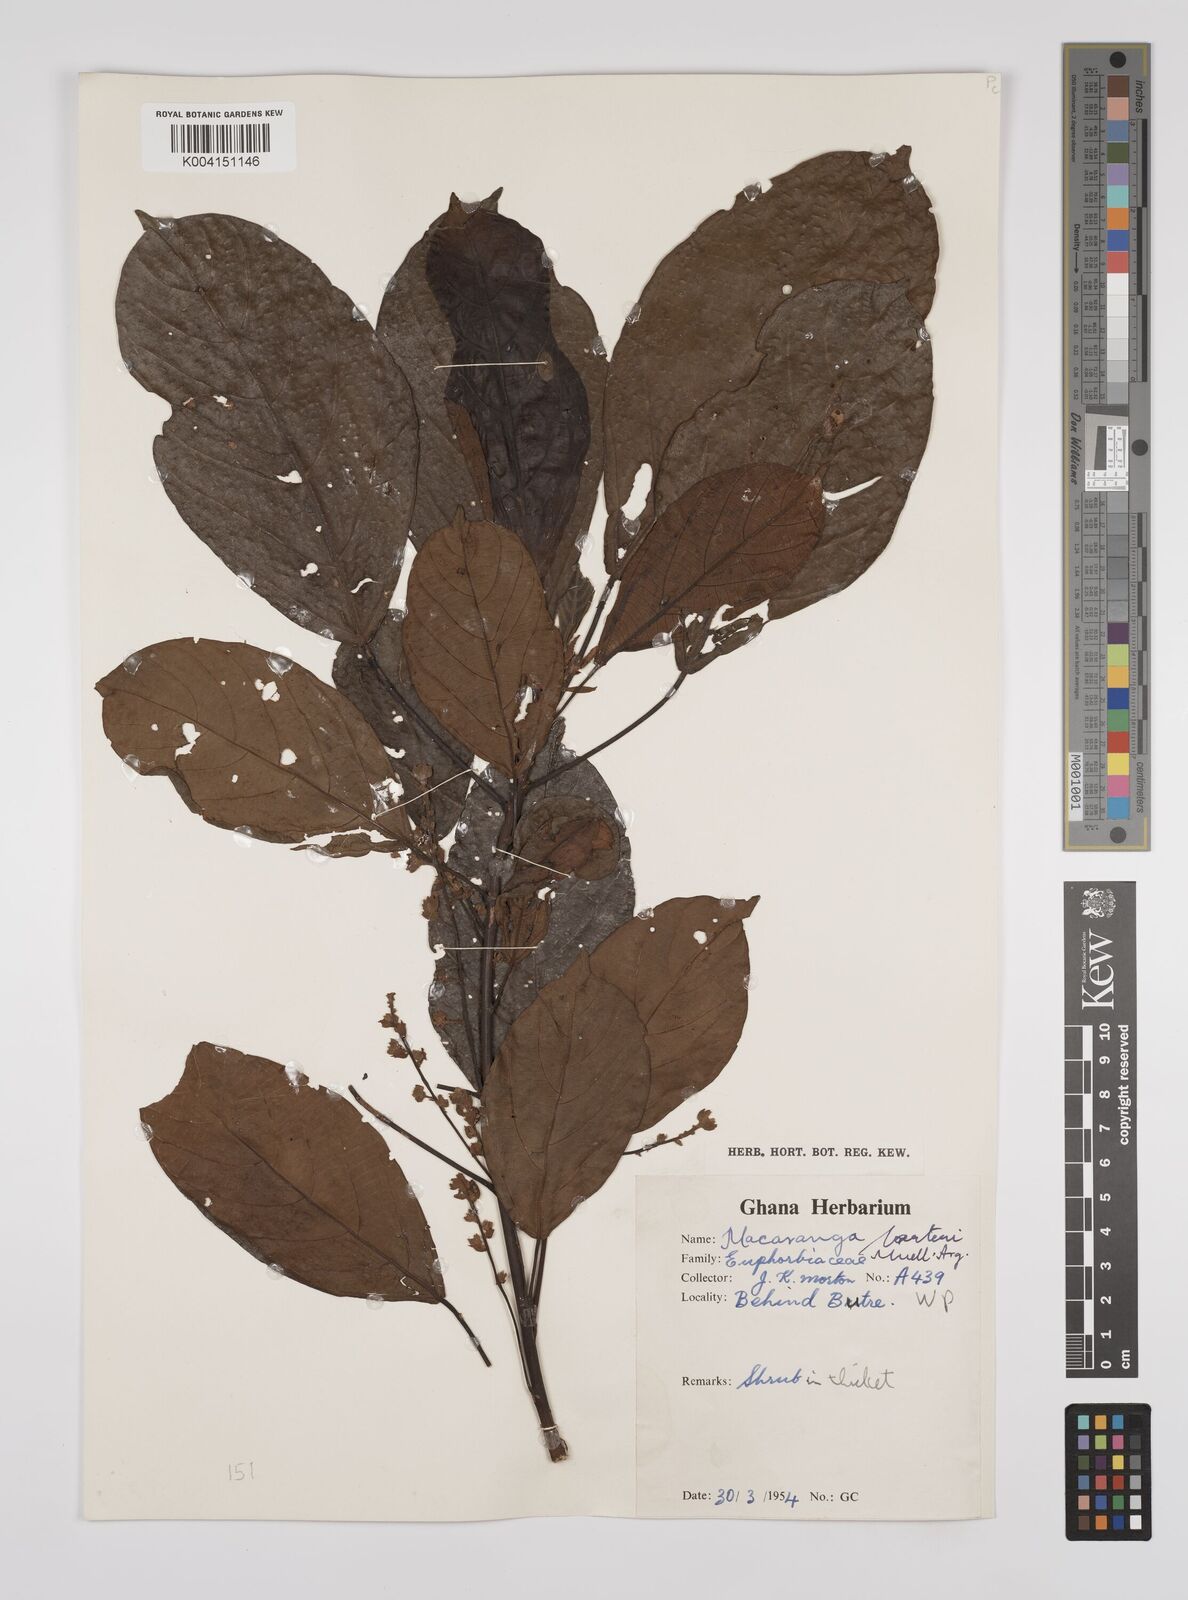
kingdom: Plantae
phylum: Tracheophyta
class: Magnoliopsida
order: Malpighiales
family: Euphorbiaceae
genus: Macaranga
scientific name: Macaranga barteri
